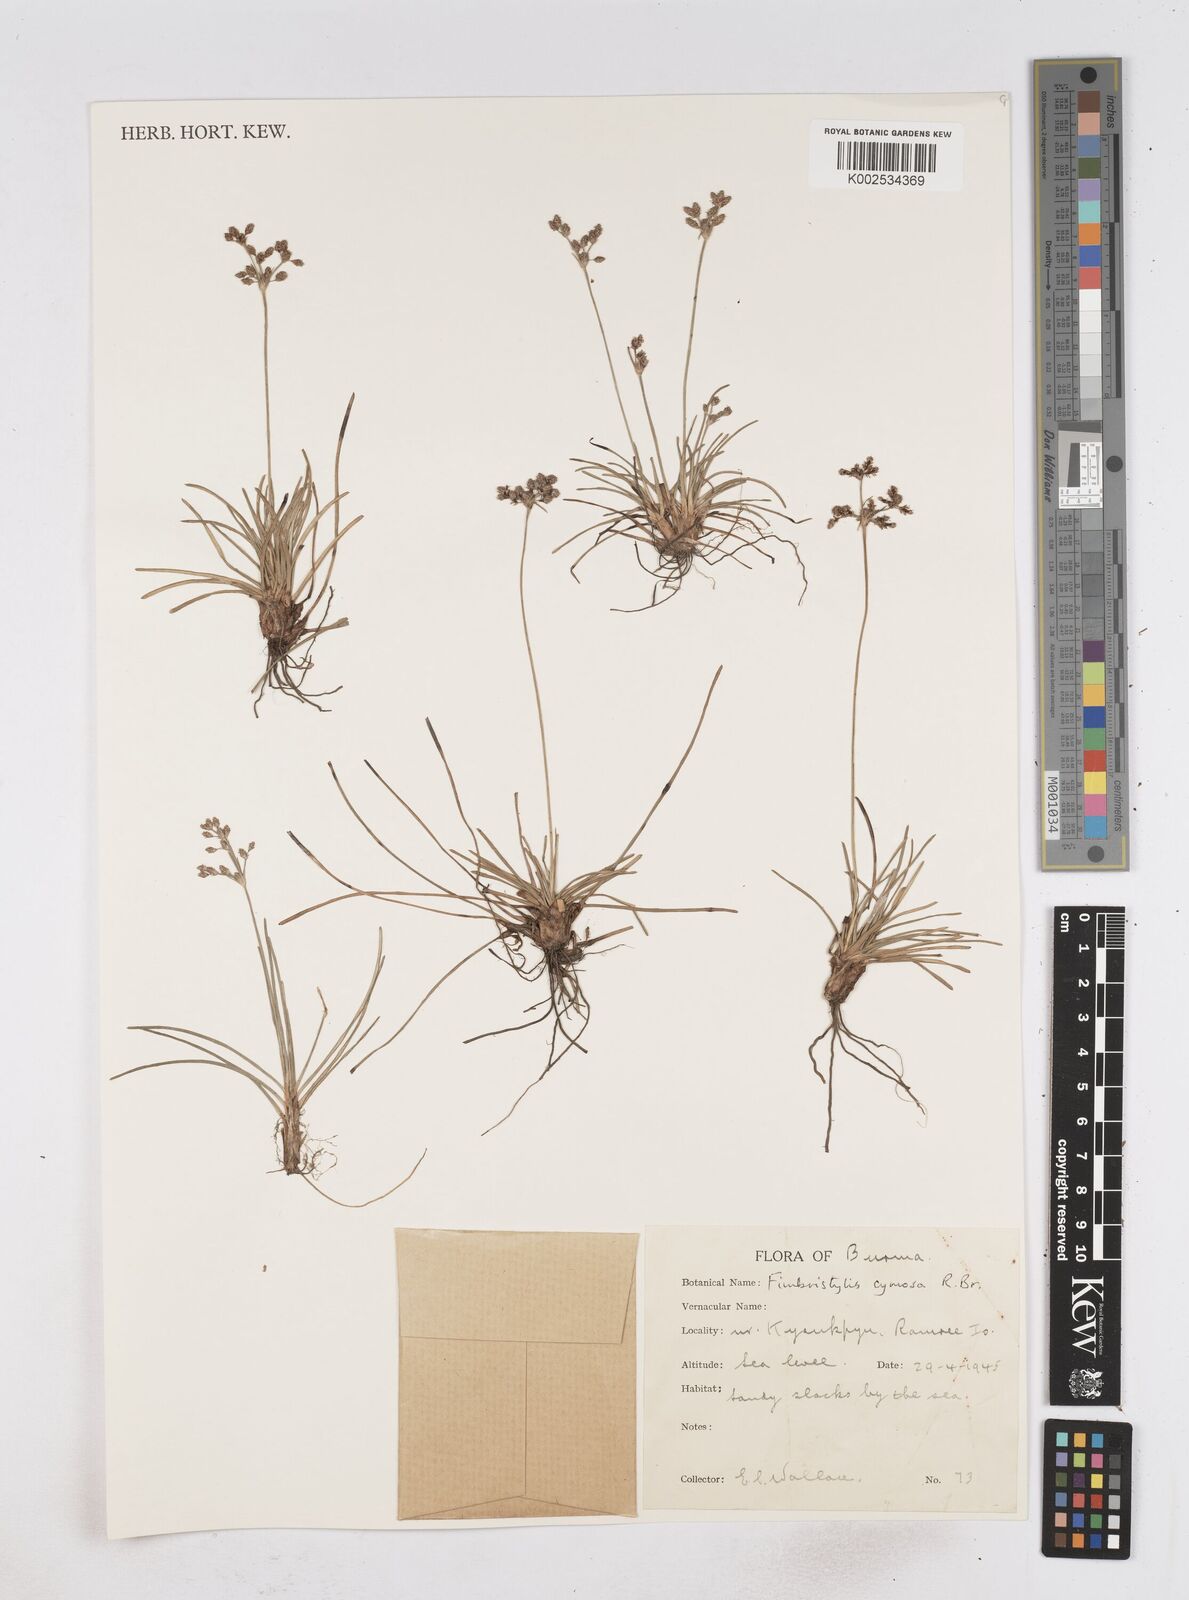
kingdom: Plantae
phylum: Tracheophyta
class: Liliopsida
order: Poales
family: Cyperaceae
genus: Fimbristylis
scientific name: Fimbristylis cymosa
